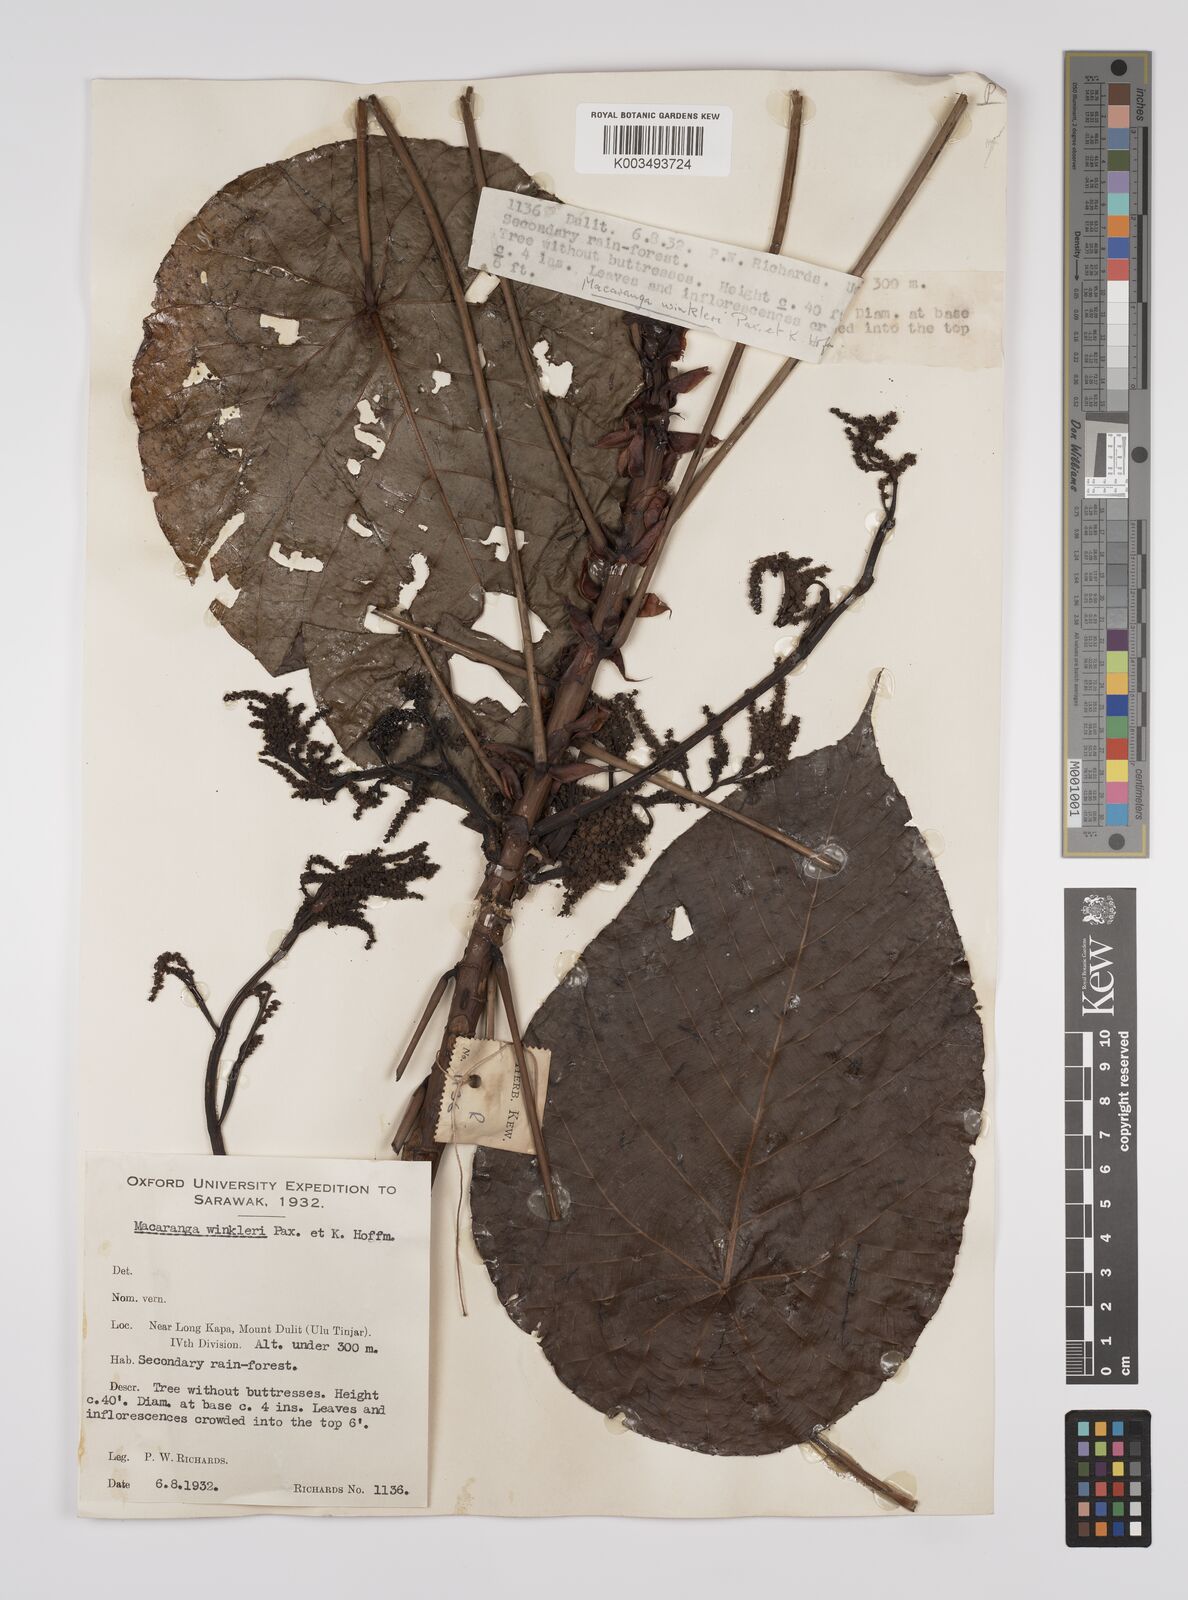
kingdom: Plantae
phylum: Tracheophyta
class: Magnoliopsida
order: Malpighiales
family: Euphorbiaceae
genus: Macaranga
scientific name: Macaranga winkleri
